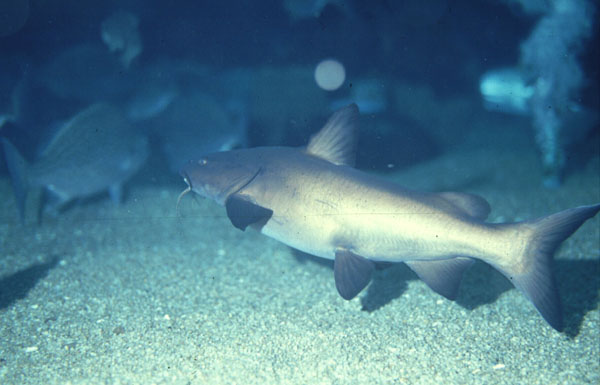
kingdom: Animalia
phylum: Chordata
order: Siluriformes
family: Ariidae
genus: Galeichthys
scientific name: Galeichthys
